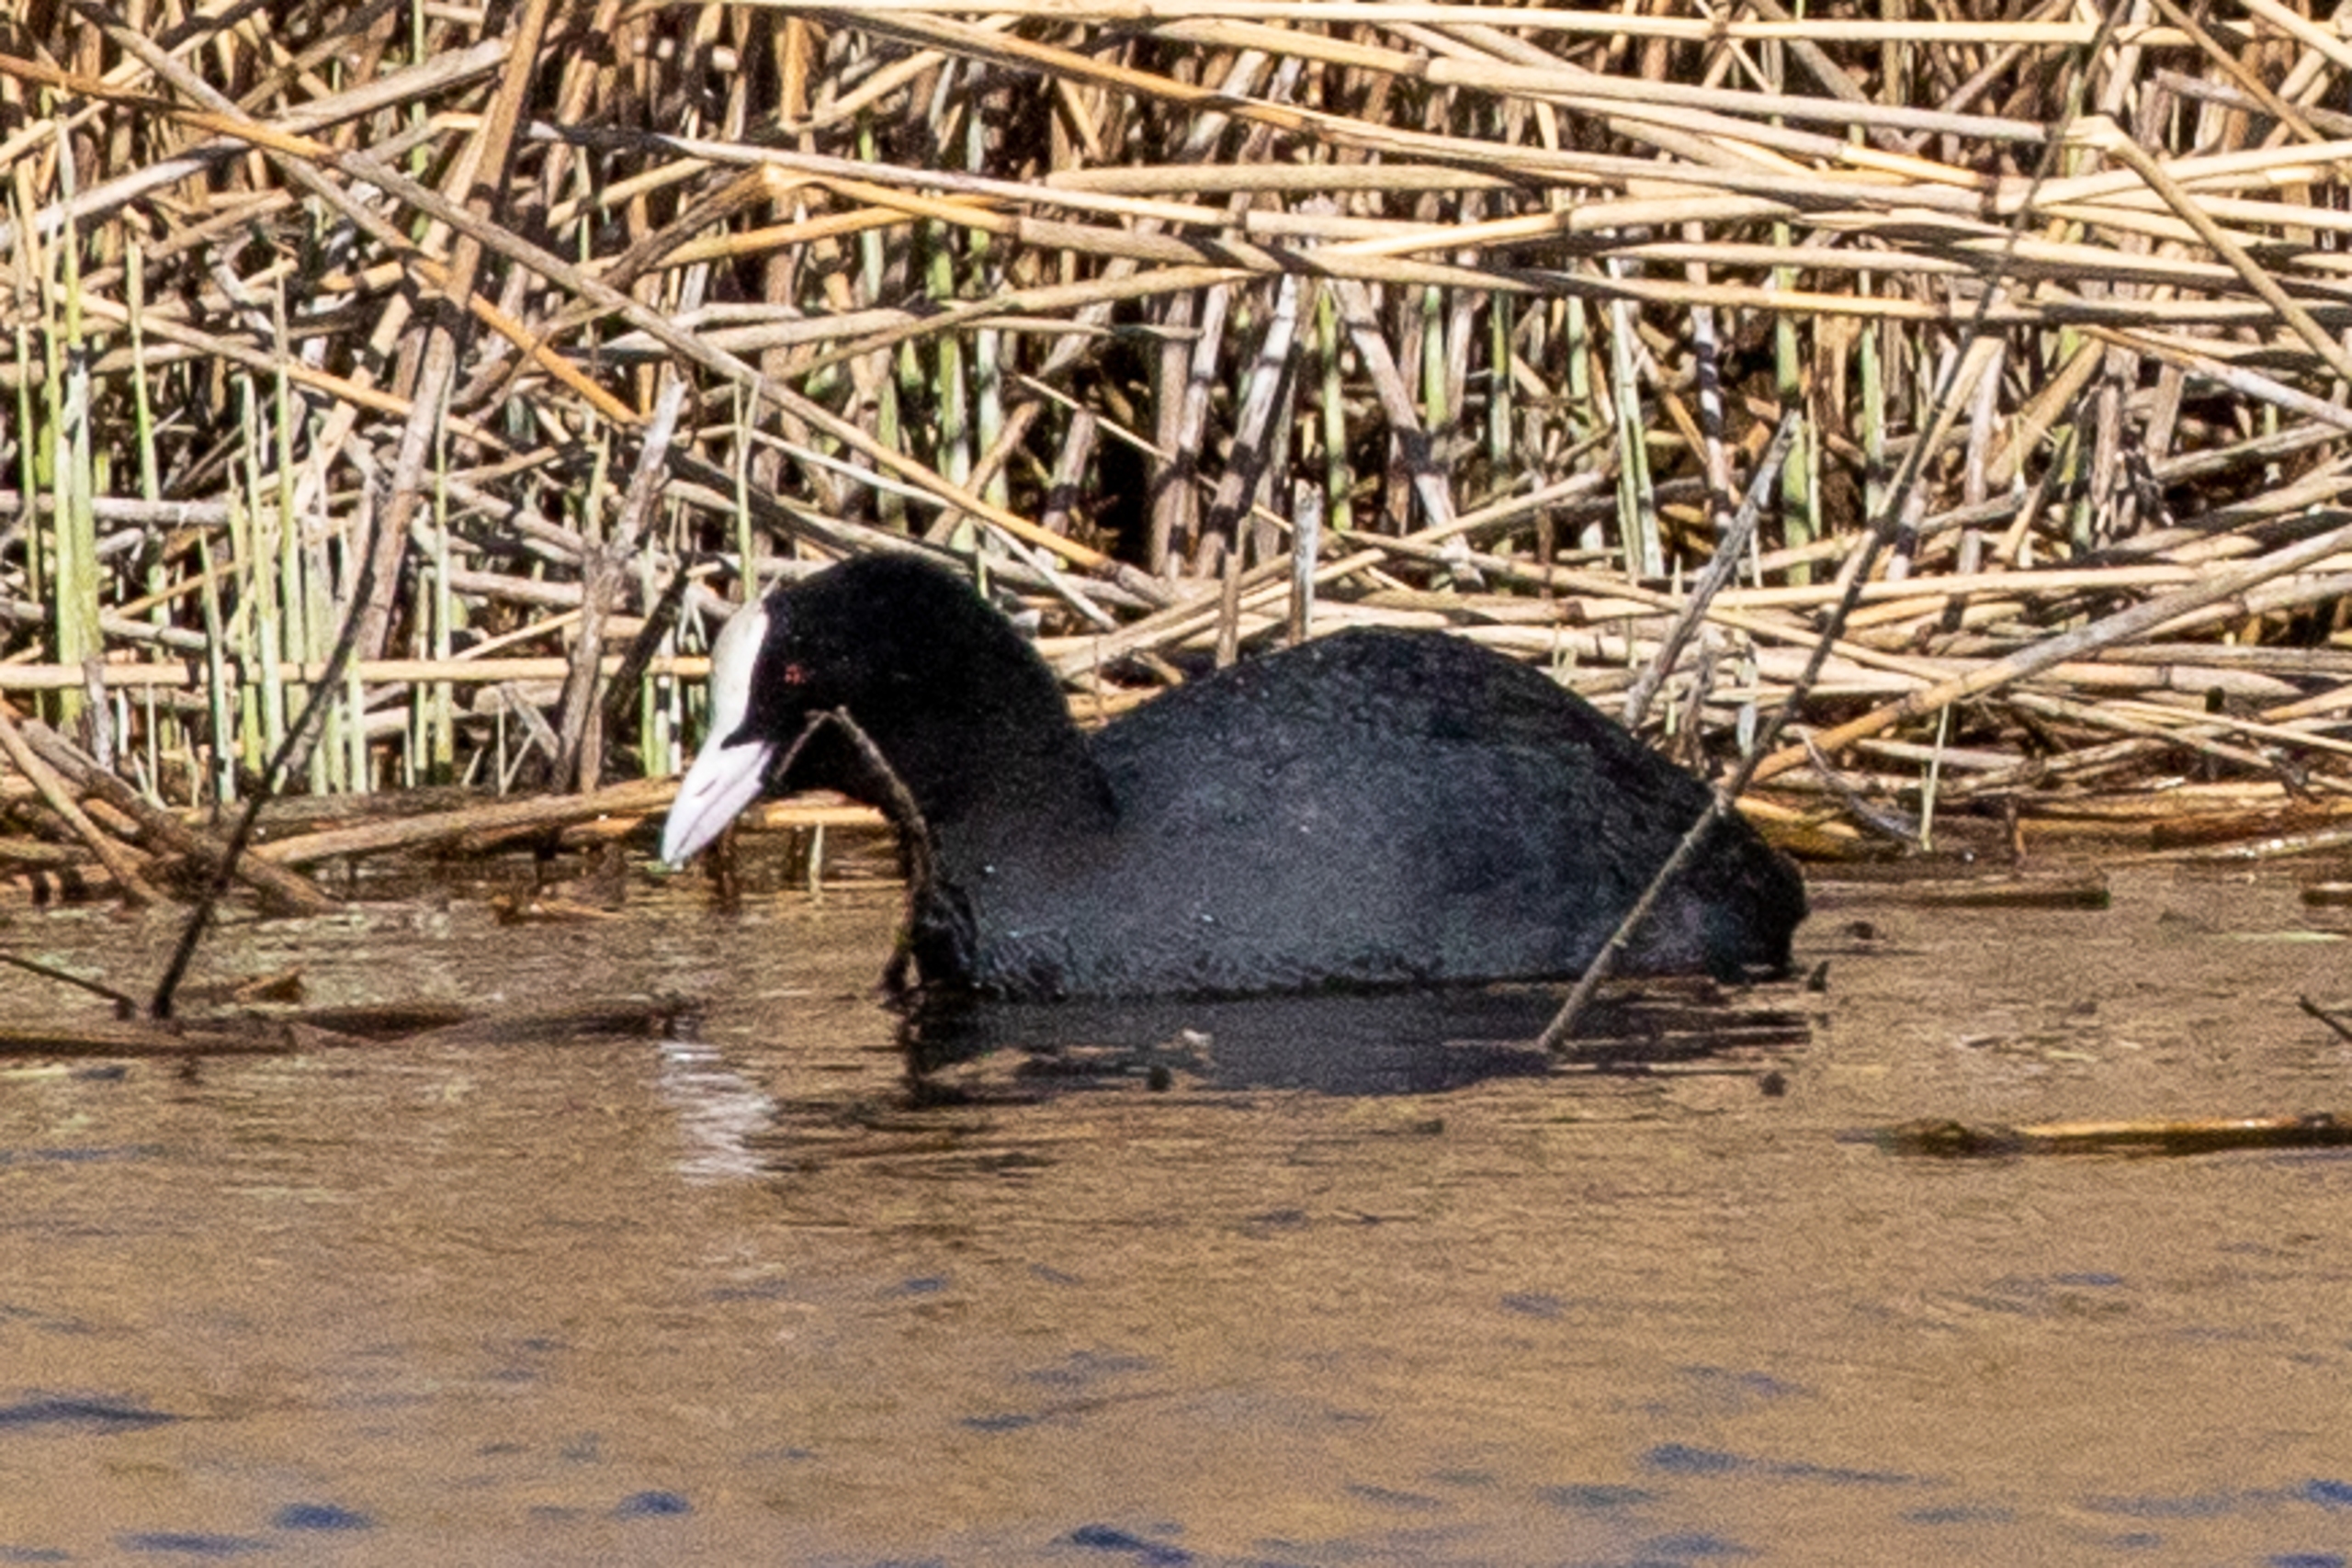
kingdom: Animalia
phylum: Chordata
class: Aves
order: Gruiformes
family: Rallidae
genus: Fulica
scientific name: Fulica atra
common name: Blishøne
